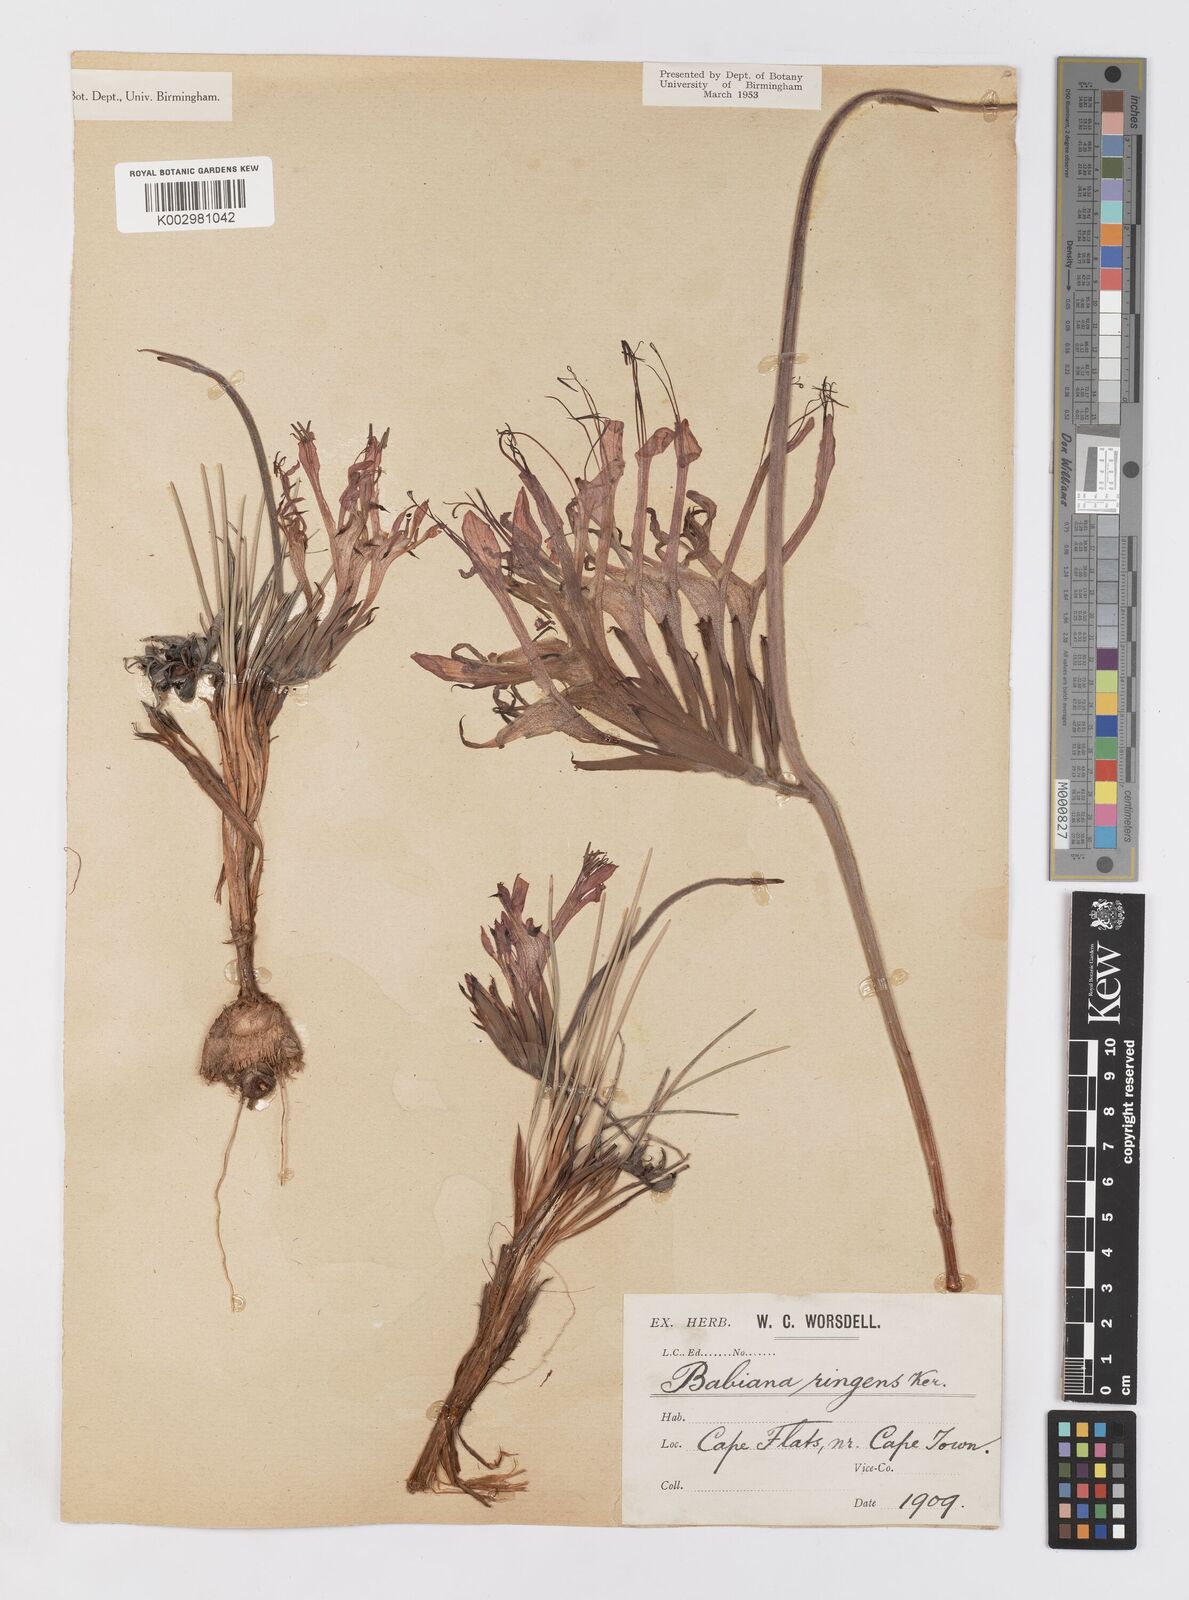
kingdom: Plantae
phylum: Tracheophyta
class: Liliopsida
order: Asparagales
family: Iridaceae
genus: Babiana
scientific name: Babiana ringens
